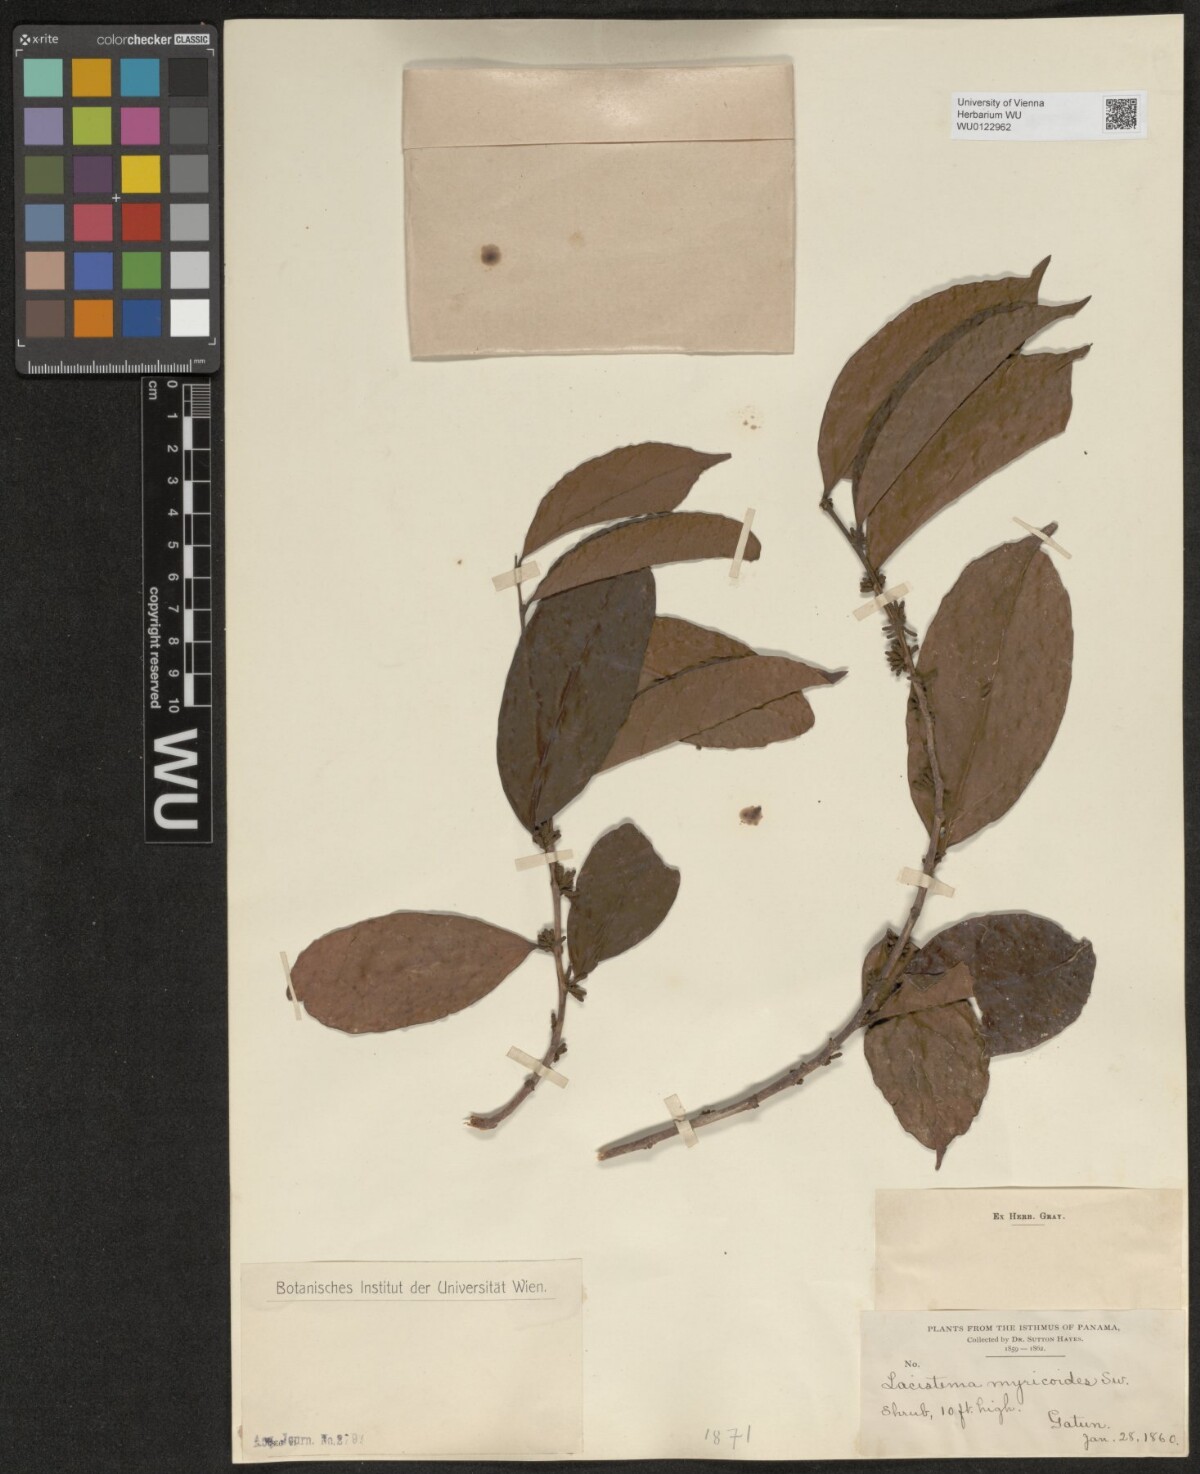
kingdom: Plantae
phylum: Tracheophyta
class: Magnoliopsida
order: Malpighiales
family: Lacistemataceae
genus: Lacistema
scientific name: Lacistema aggregatum
